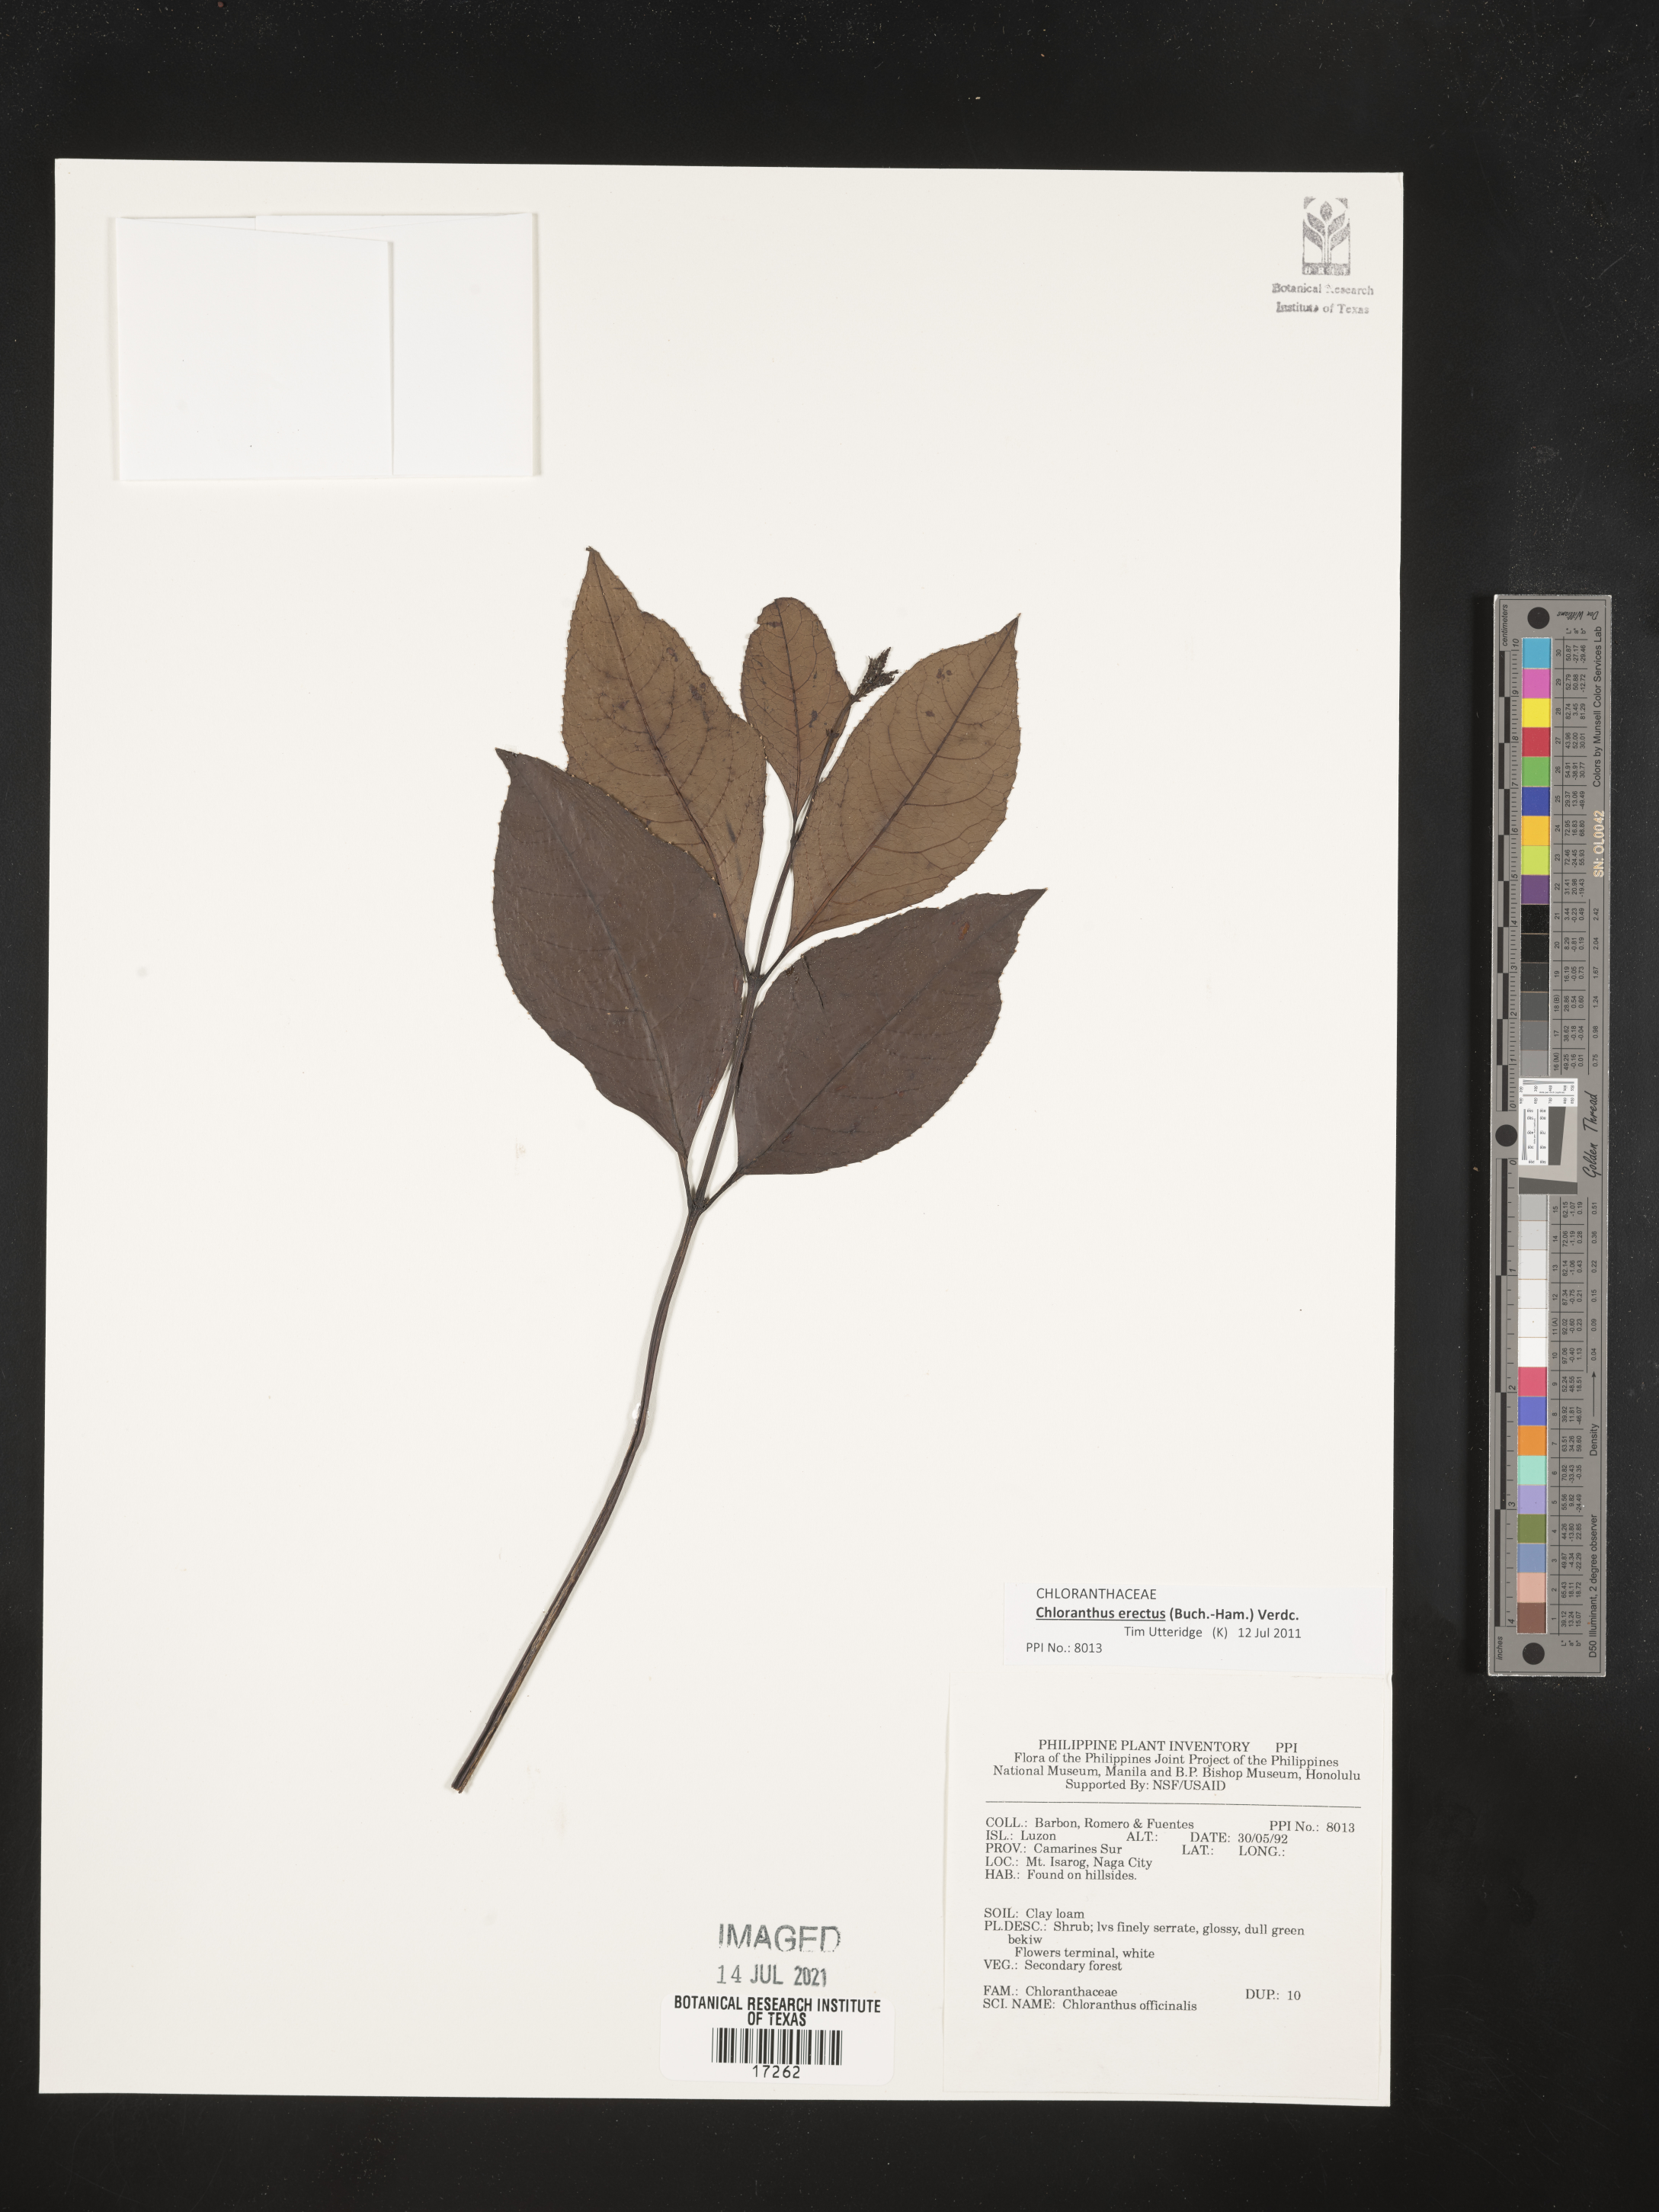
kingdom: Plantae
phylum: Tracheophyta
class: Magnoliopsida
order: Chloranthales
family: Chloranthaceae
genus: Chloranthus
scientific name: Chloranthus elatior
